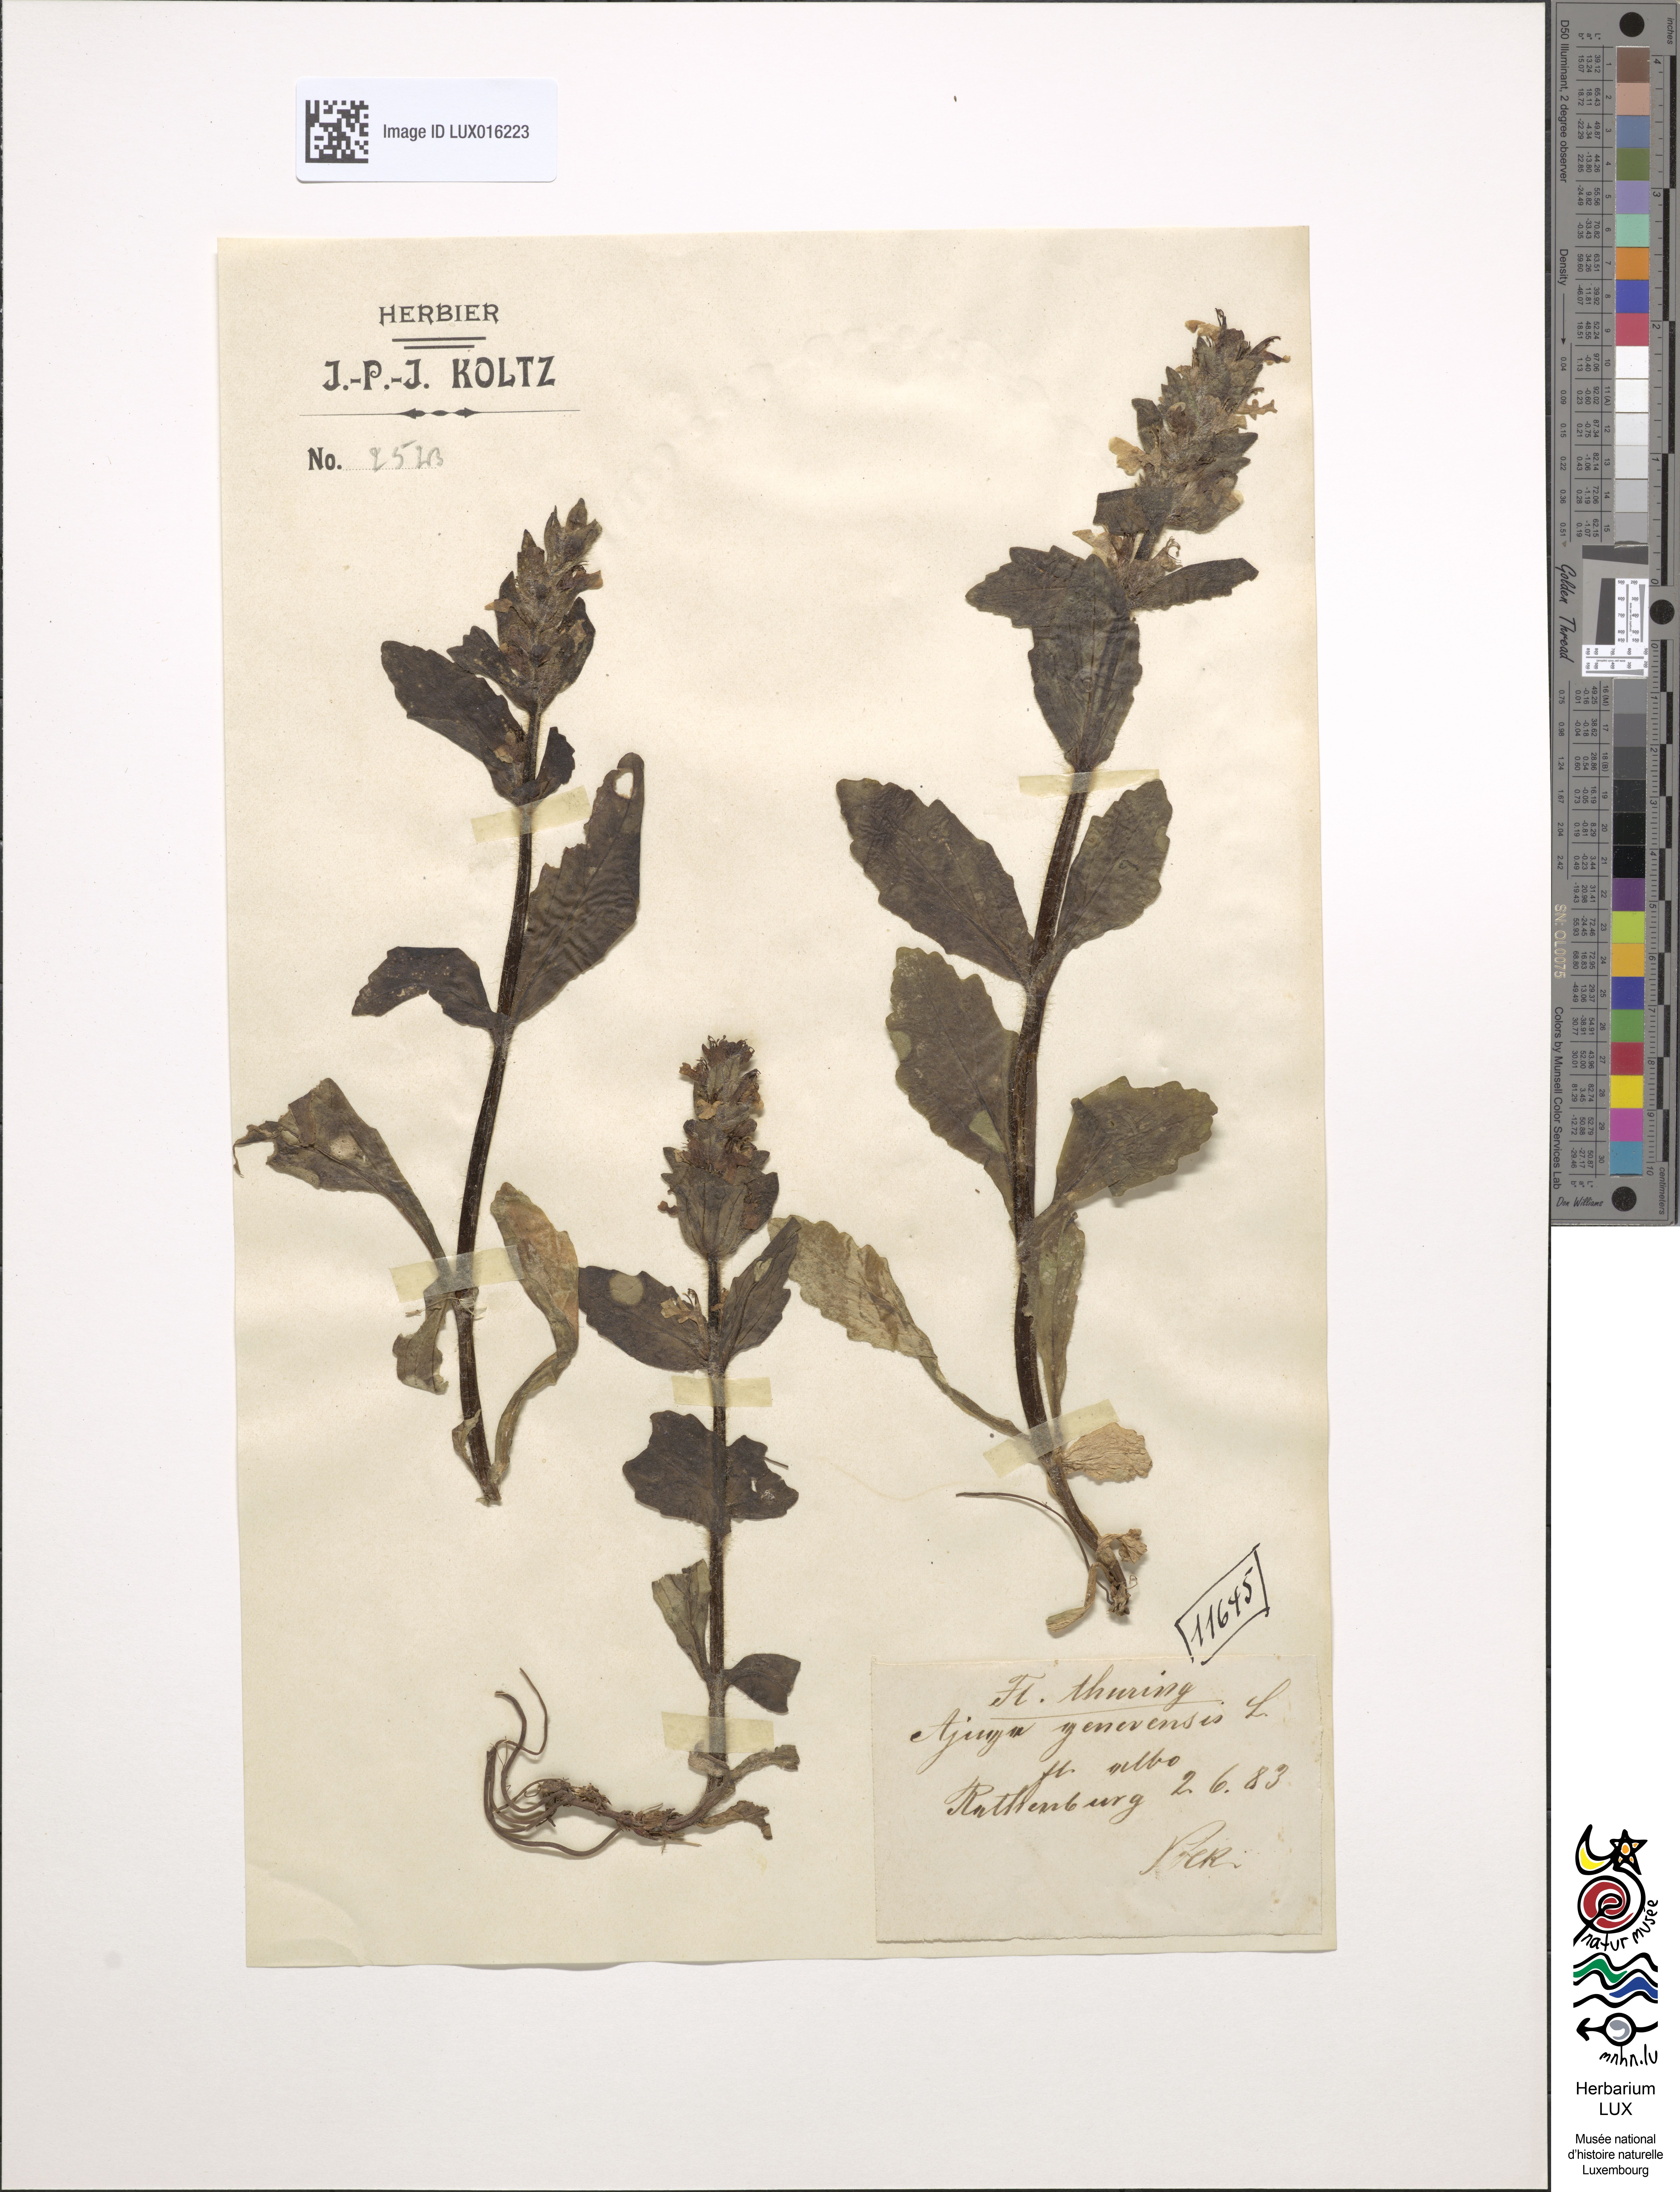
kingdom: Plantae
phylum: Tracheophyta
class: Magnoliopsida
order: Lamiales
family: Lamiaceae
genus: Ajuga
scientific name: Ajuga genevensis
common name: Blue bugle
